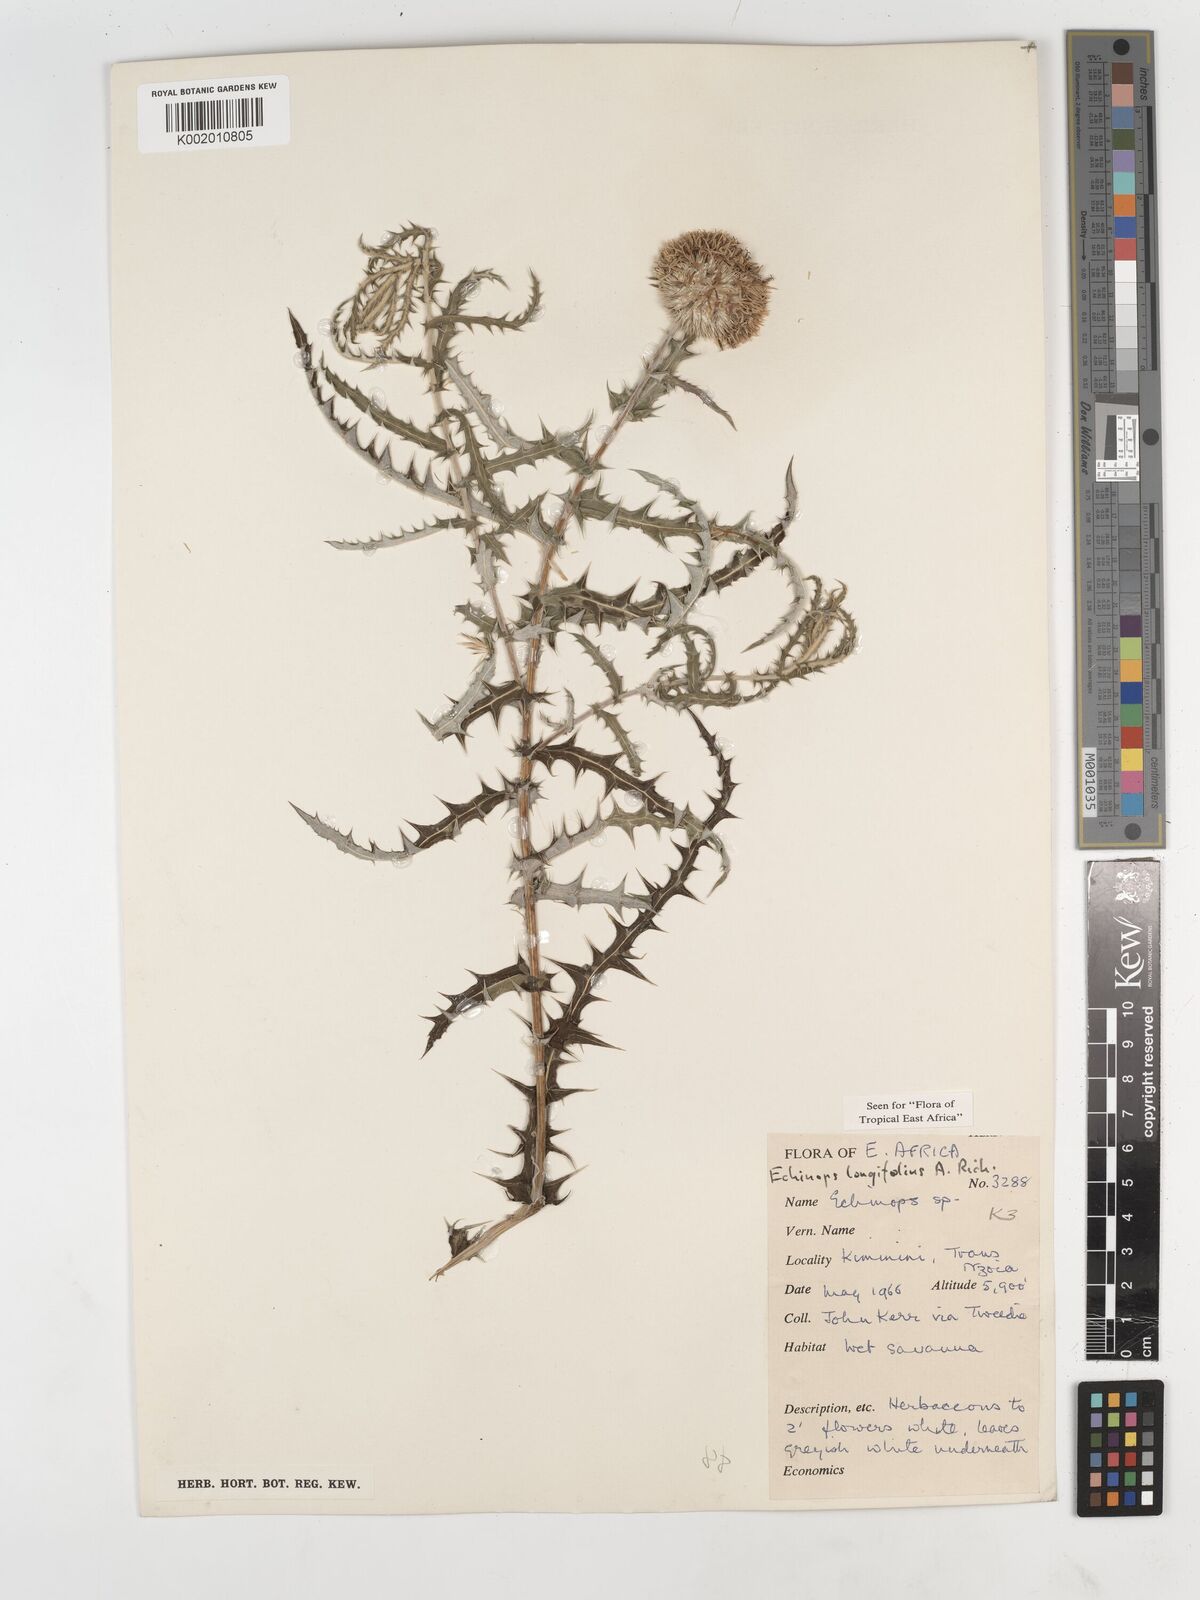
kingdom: Plantae
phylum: Tracheophyta
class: Magnoliopsida
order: Asterales
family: Asteraceae
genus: Echinops
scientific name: Echinops longifolius
